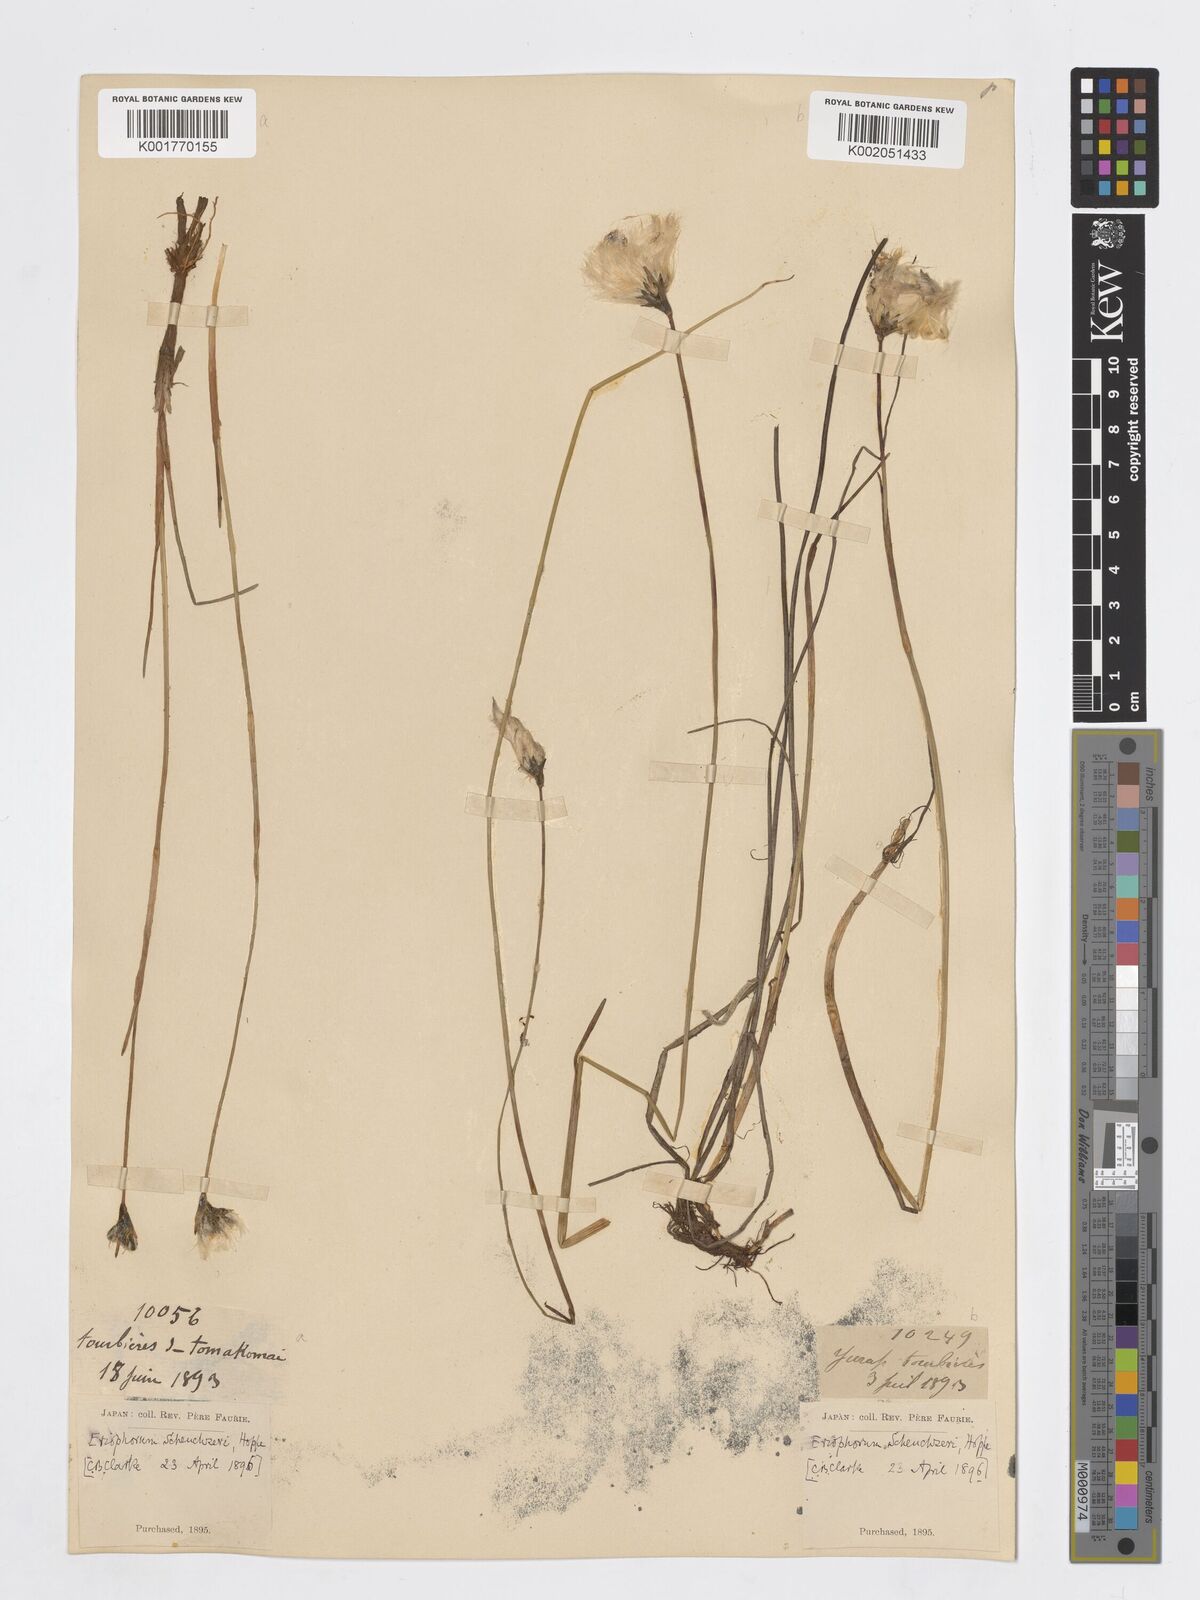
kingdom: Plantae
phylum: Tracheophyta
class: Liliopsida
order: Poales
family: Cyperaceae
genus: Eriophorum
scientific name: Eriophorum scheuchzeri
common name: Scheuchzer's cottongrass
